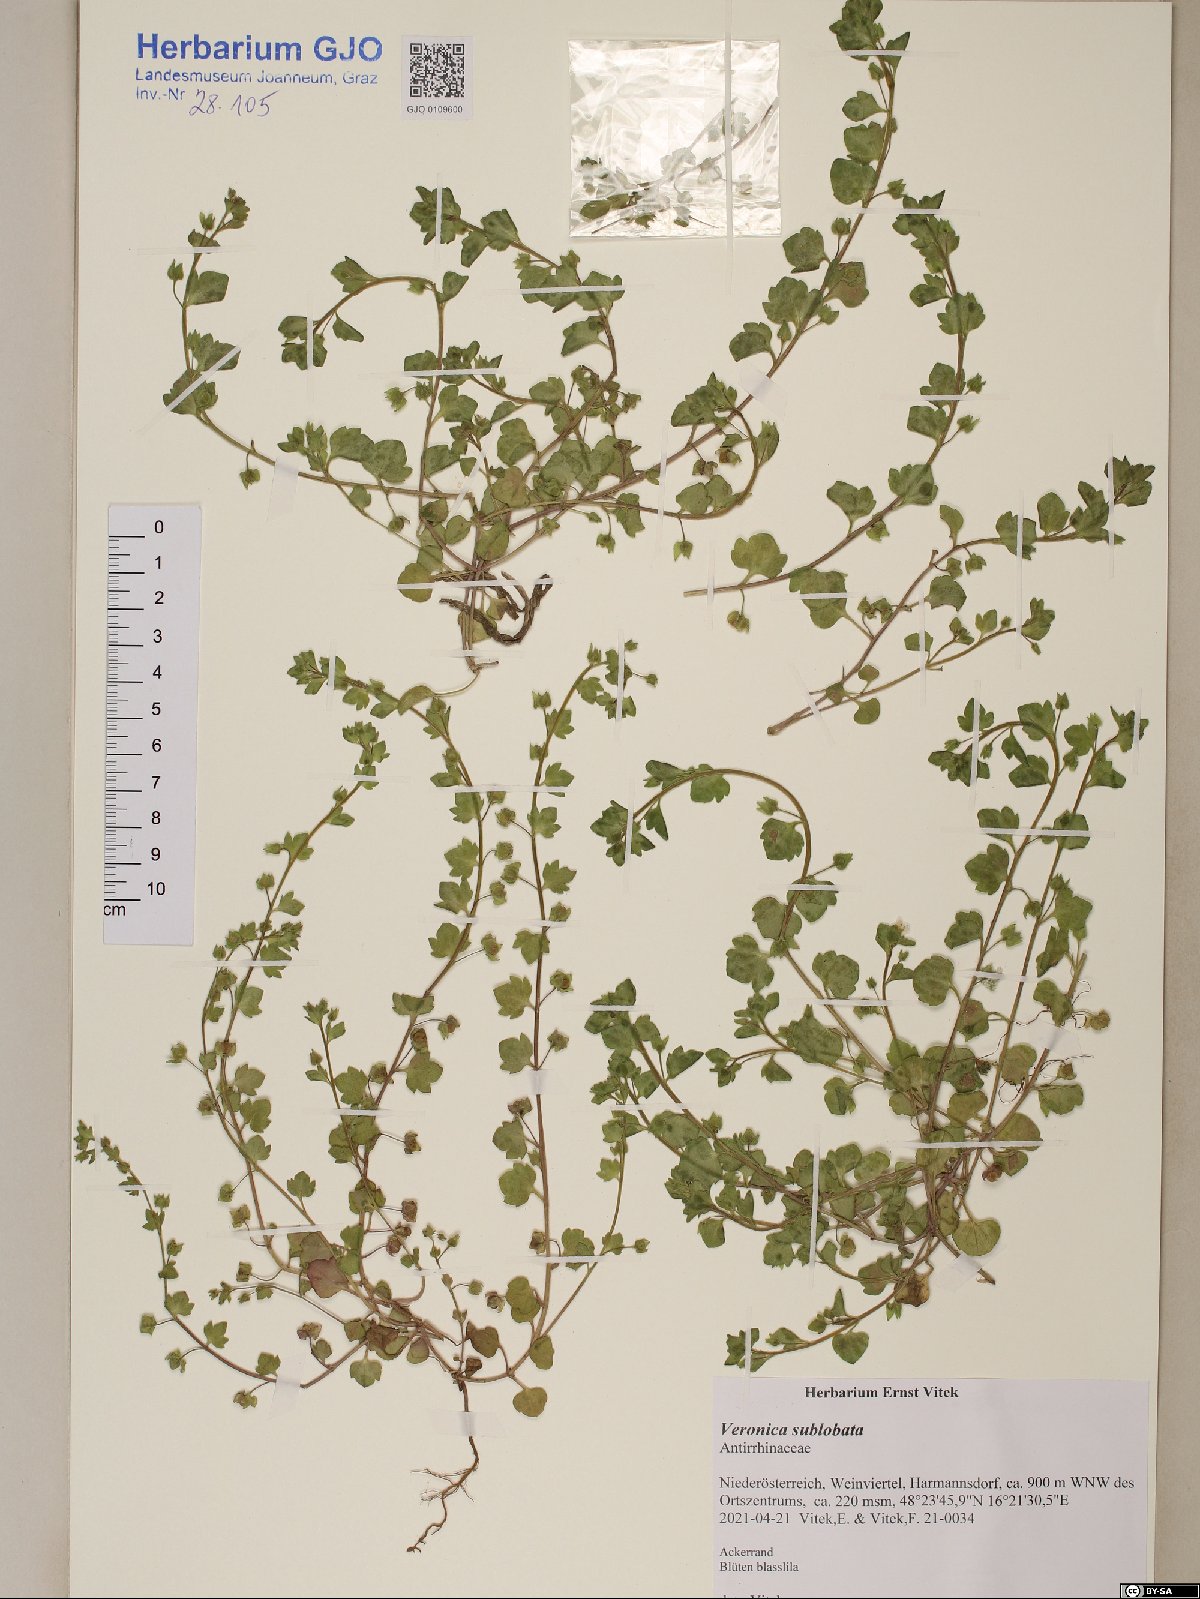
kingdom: Plantae
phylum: Tracheophyta
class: Magnoliopsida
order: Lamiales
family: Plantaginaceae
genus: Veronica
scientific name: Veronica hederifolia
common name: Ivy-leaved speedwell
